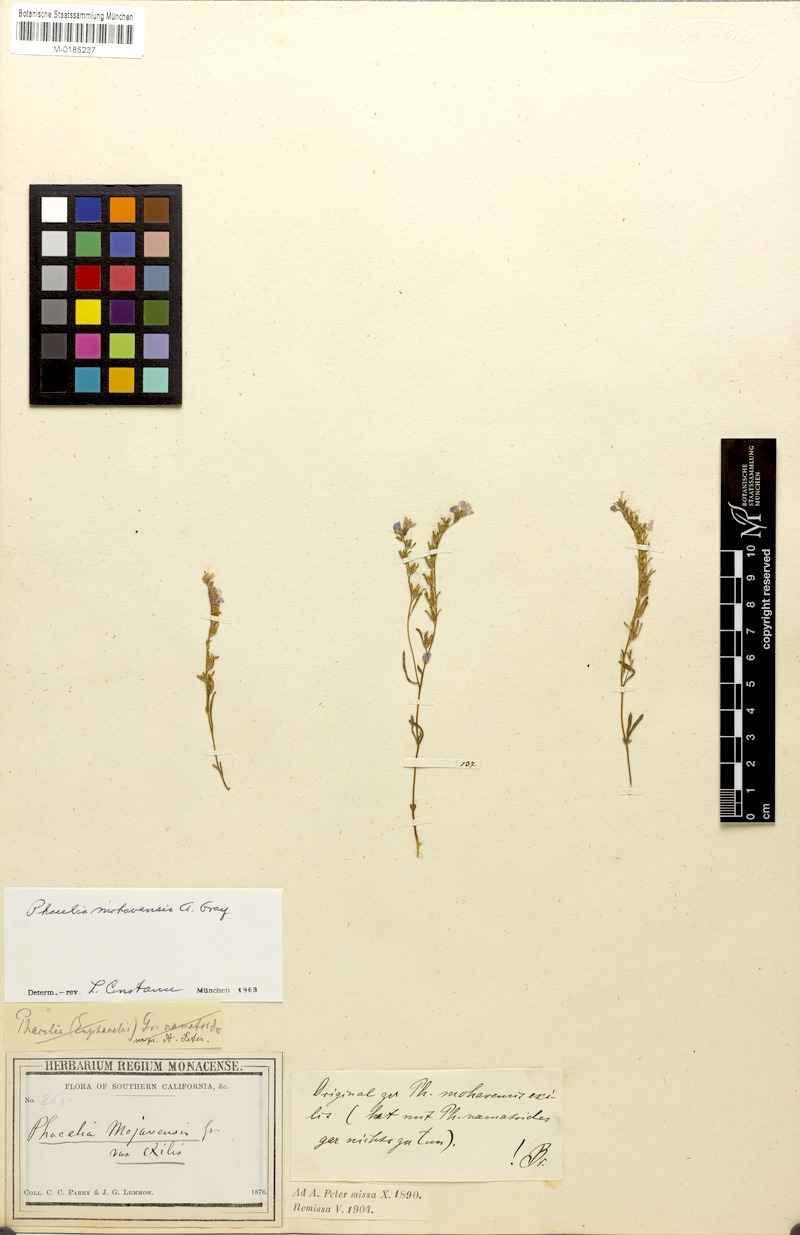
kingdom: Plantae
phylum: Tracheophyta
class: Magnoliopsida
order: Boraginales
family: Hydrophyllaceae
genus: Phacelia
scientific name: Phacelia mohavensis
